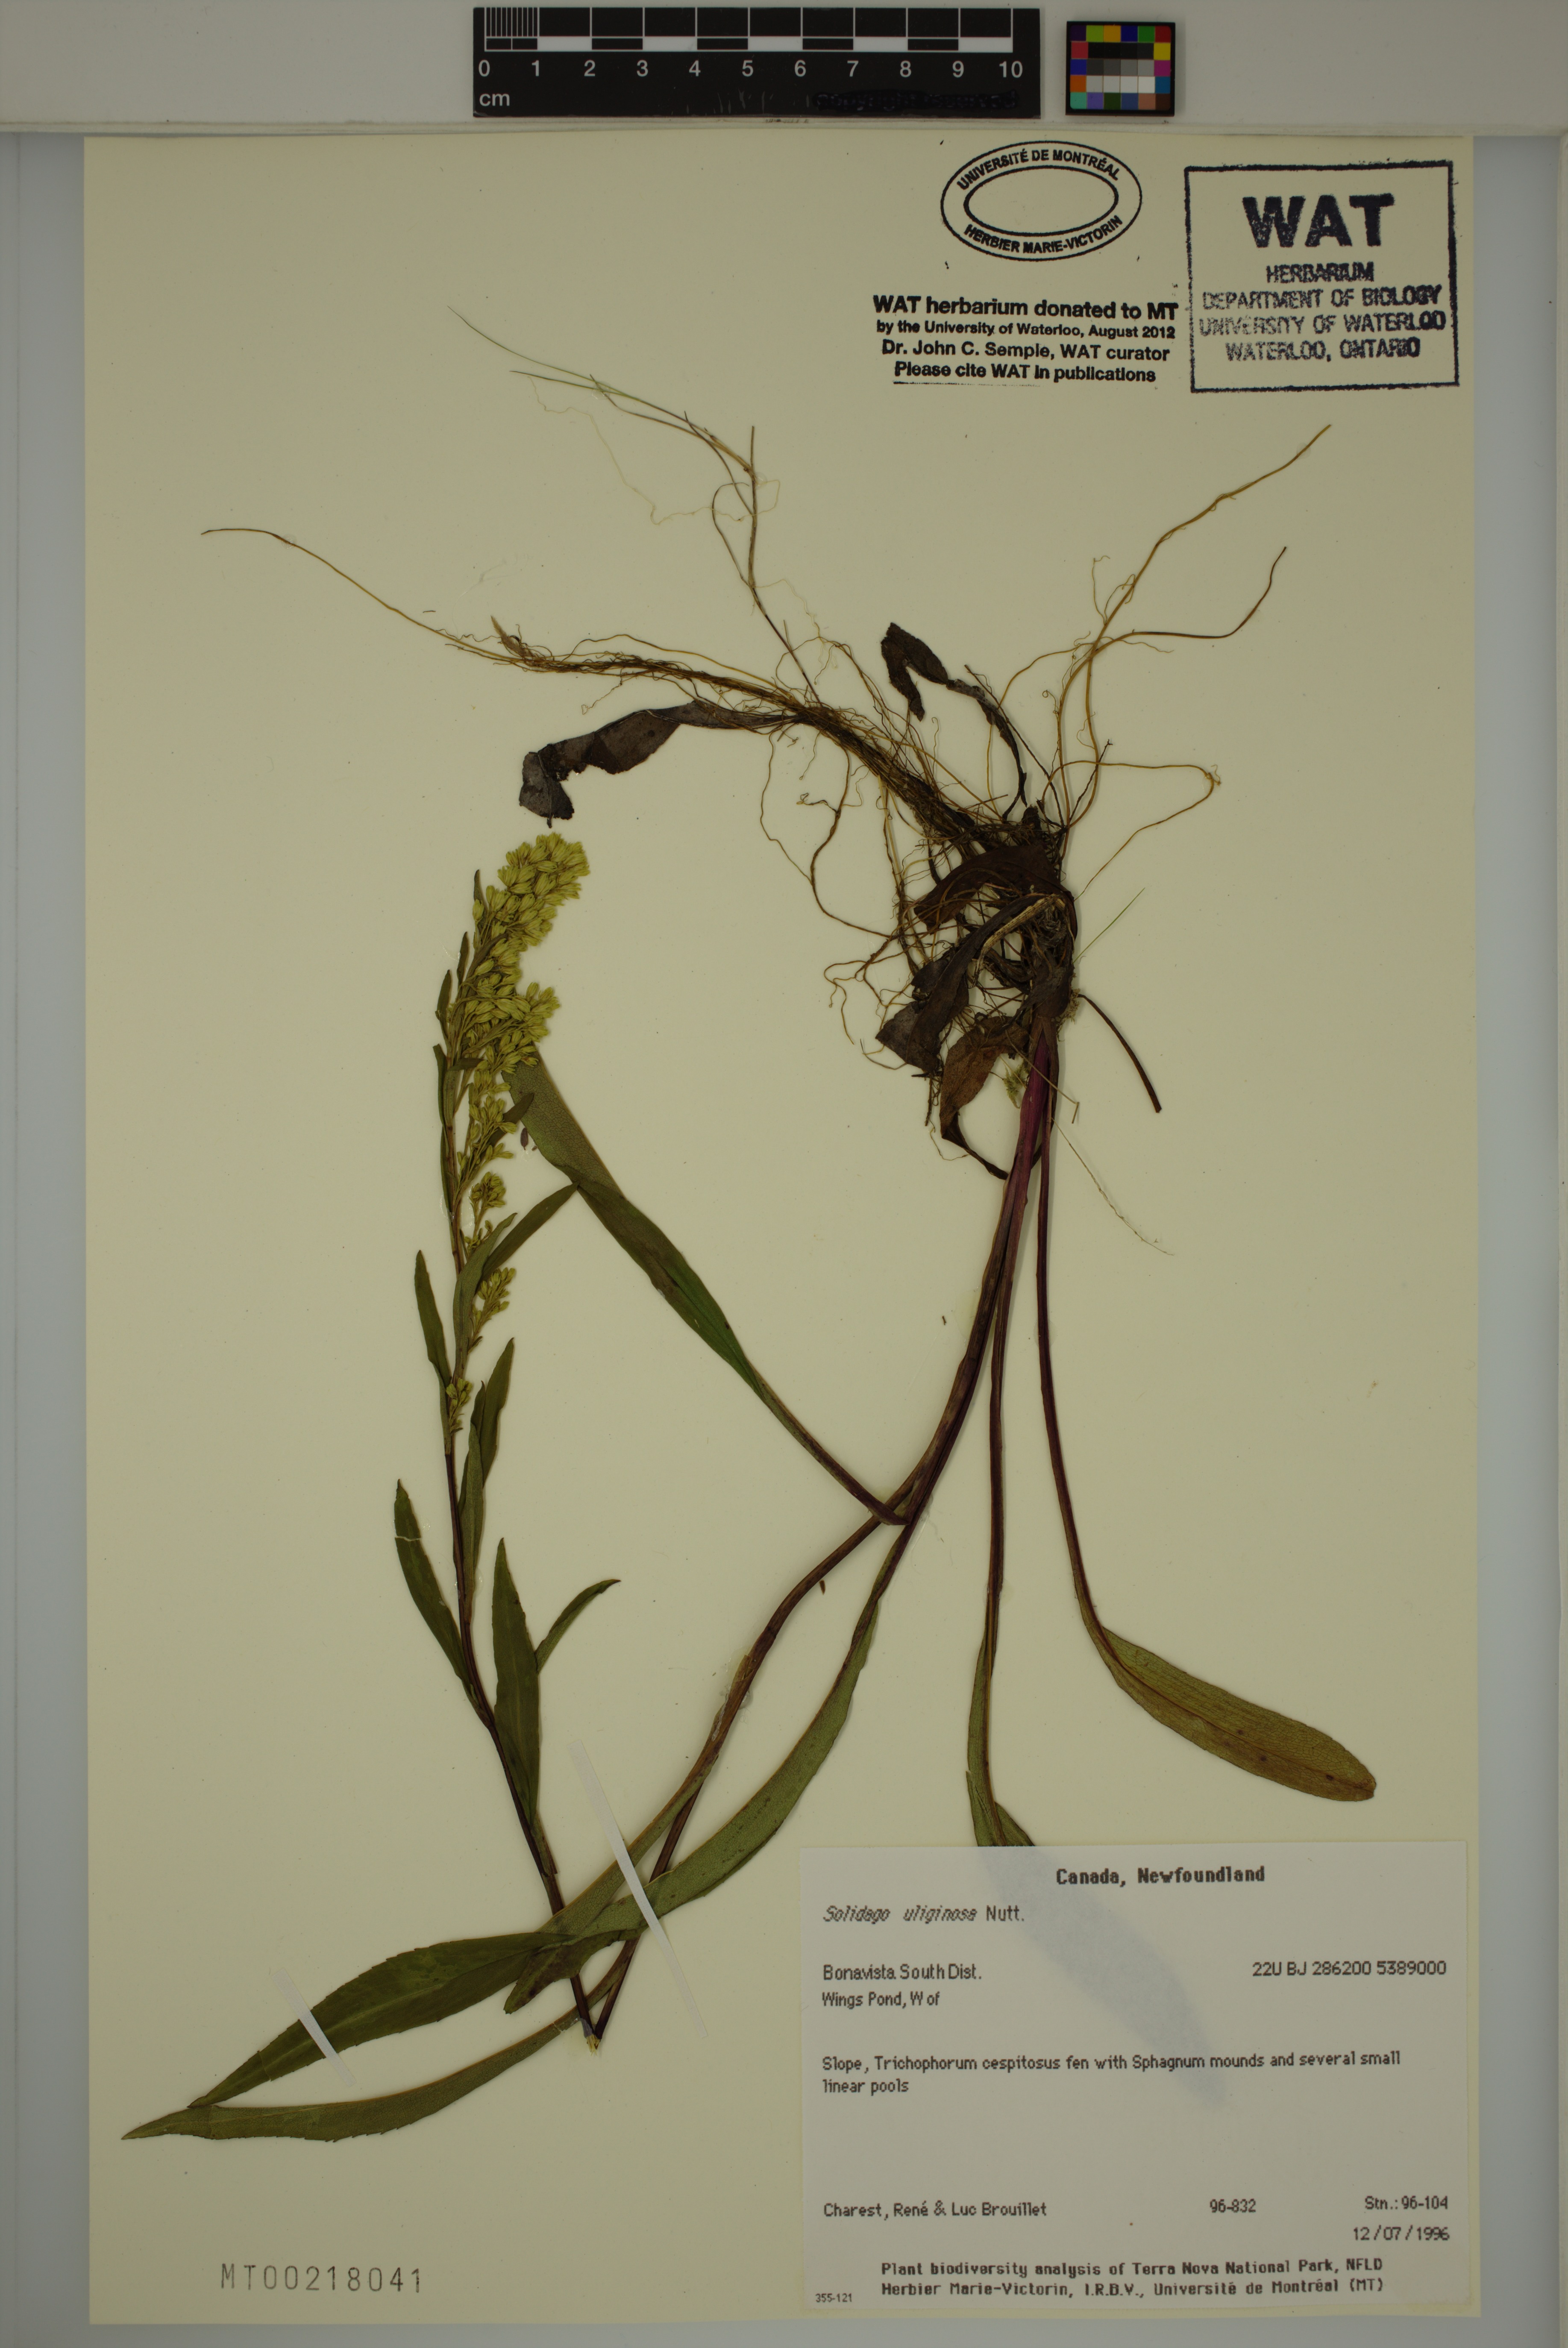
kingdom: Plantae
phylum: Tracheophyta
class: Magnoliopsida
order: Asterales
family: Asteraceae
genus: Solidago
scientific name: Solidago uliginosa
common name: Bog goldenrod
